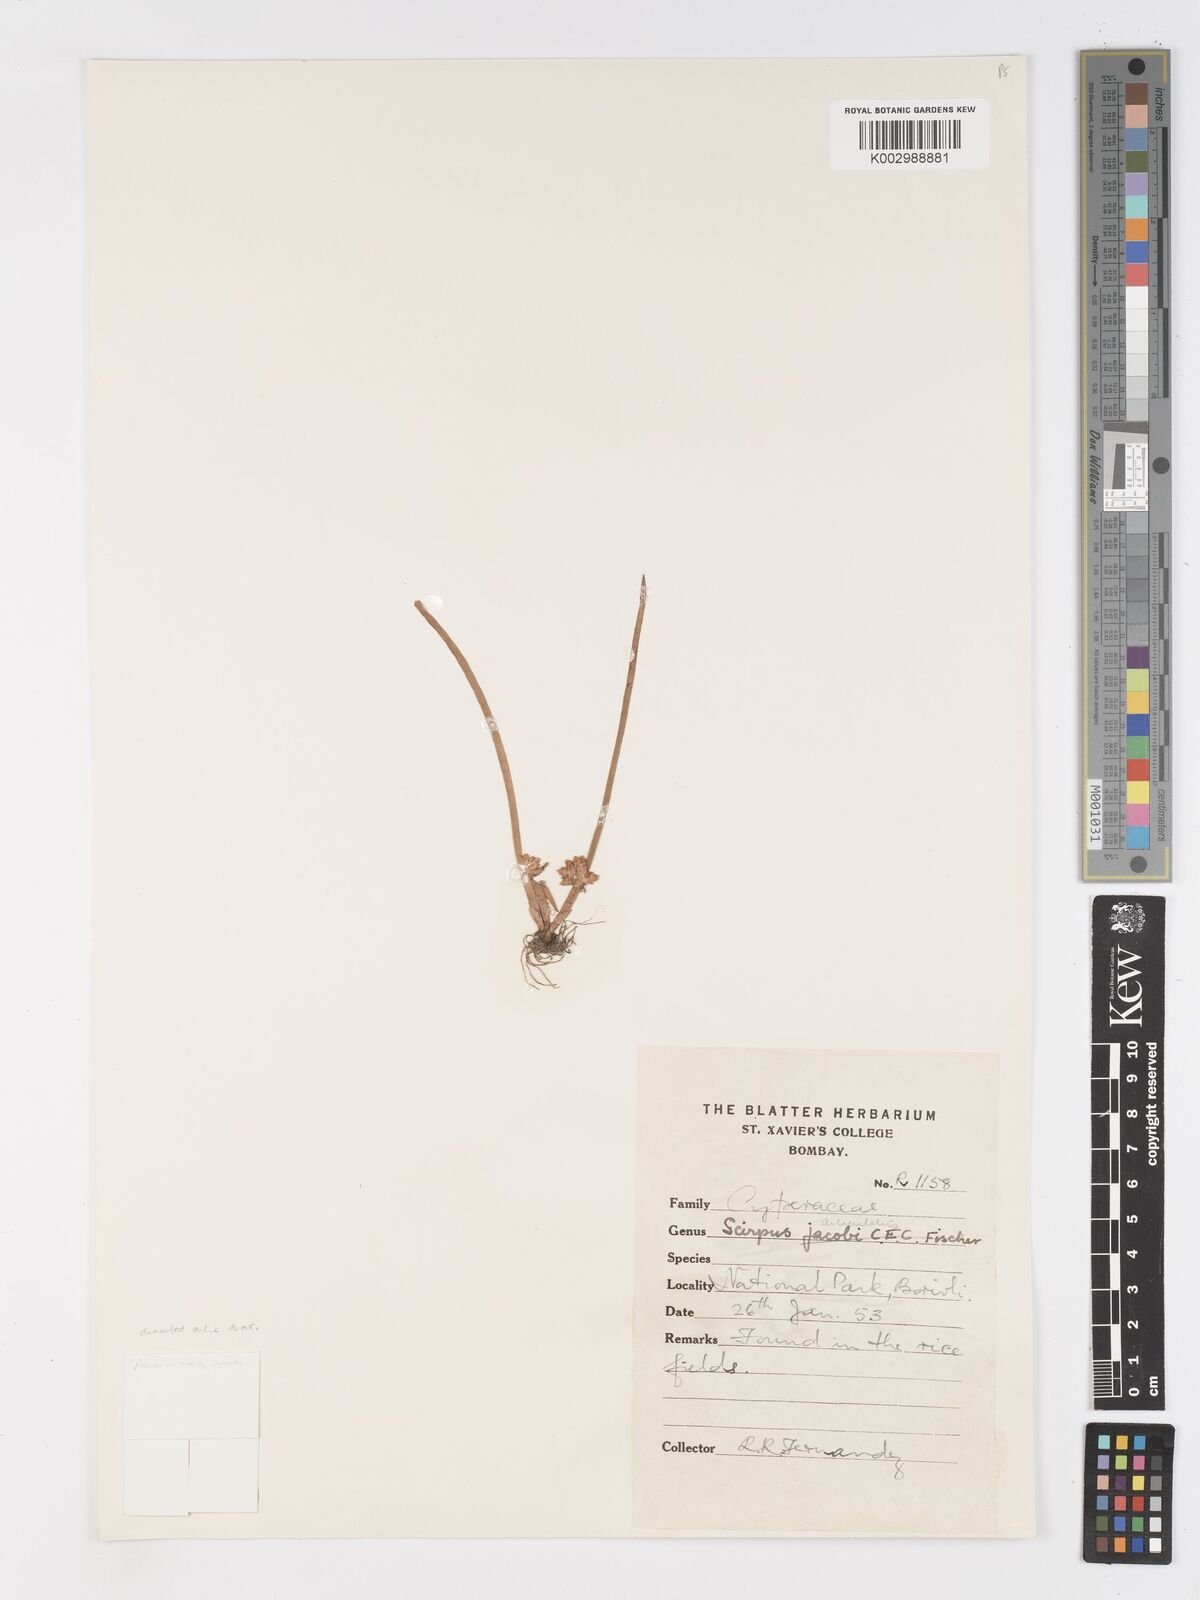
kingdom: Plantae
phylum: Tracheophyta
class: Liliopsida
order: Poales
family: Cyperaceae
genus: Schoenoplectiella
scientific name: Schoenoplectiella praelongata
